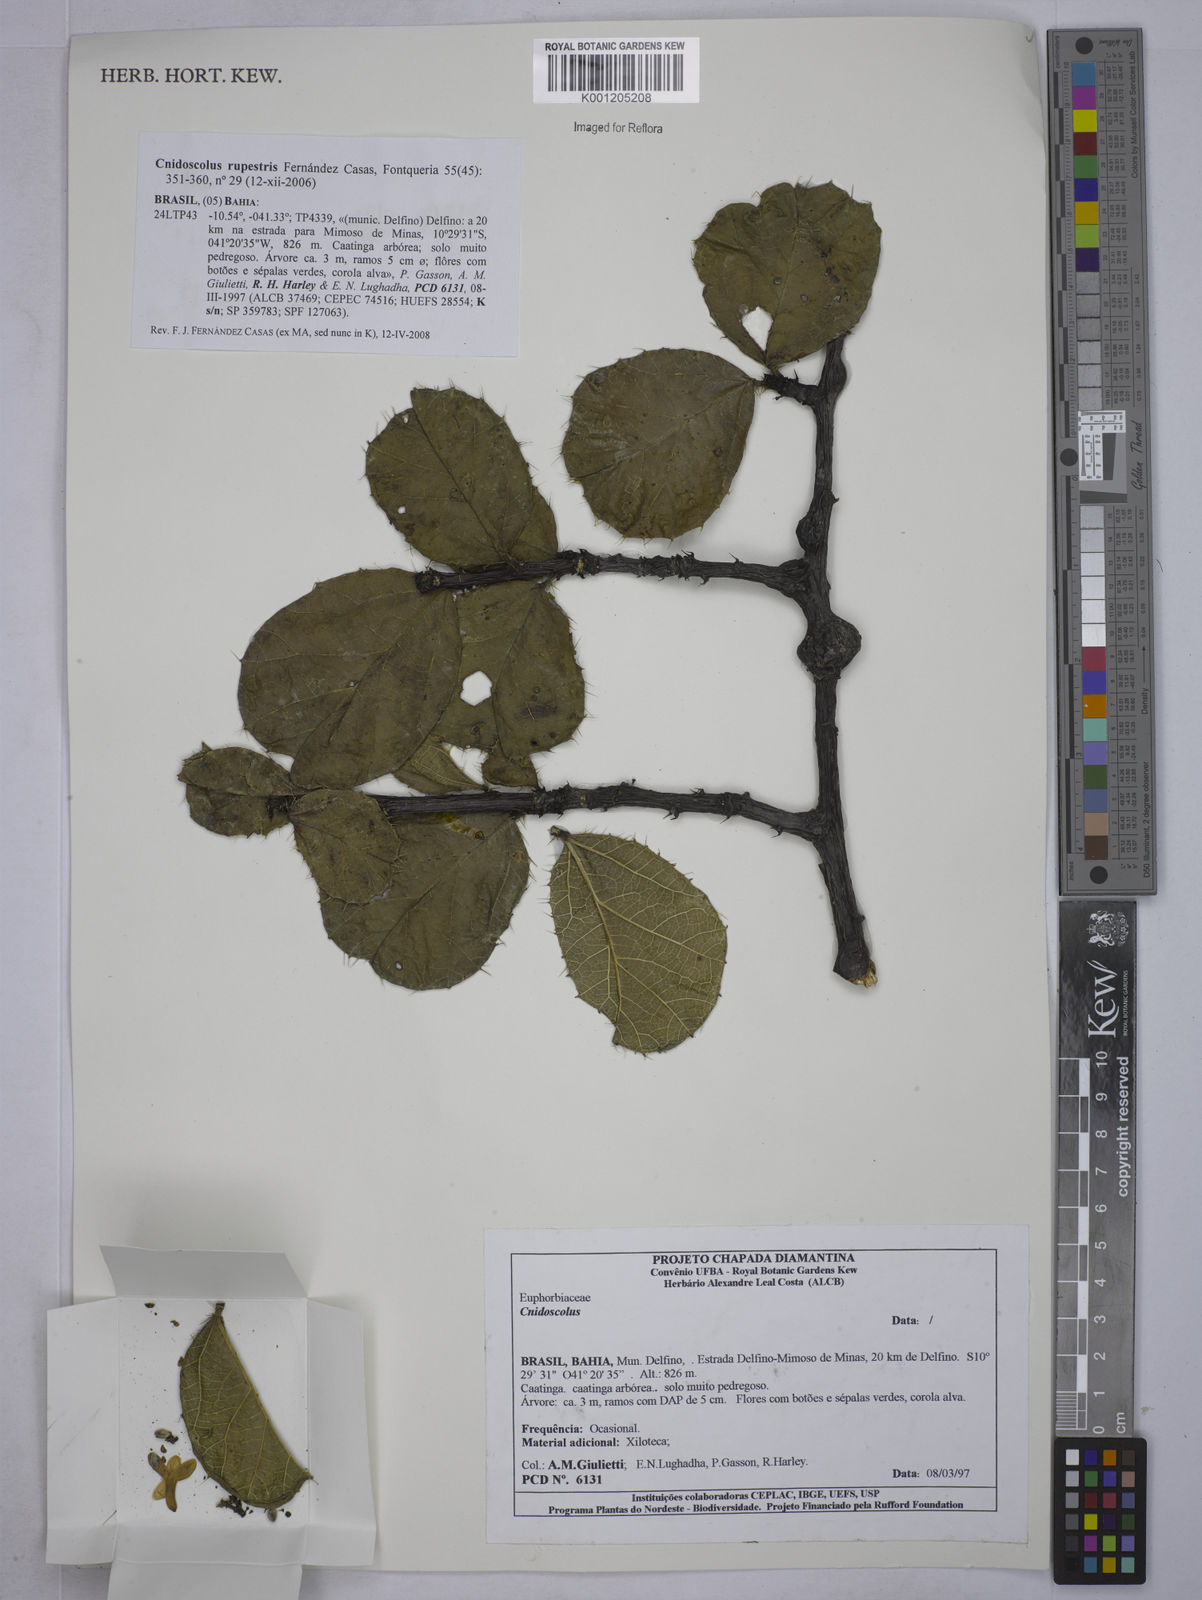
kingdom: Plantae
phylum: Tracheophyta
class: Magnoliopsida
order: Malpighiales
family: Euphorbiaceae
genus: Cnidoscolus
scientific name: Cnidoscolus rupestris
